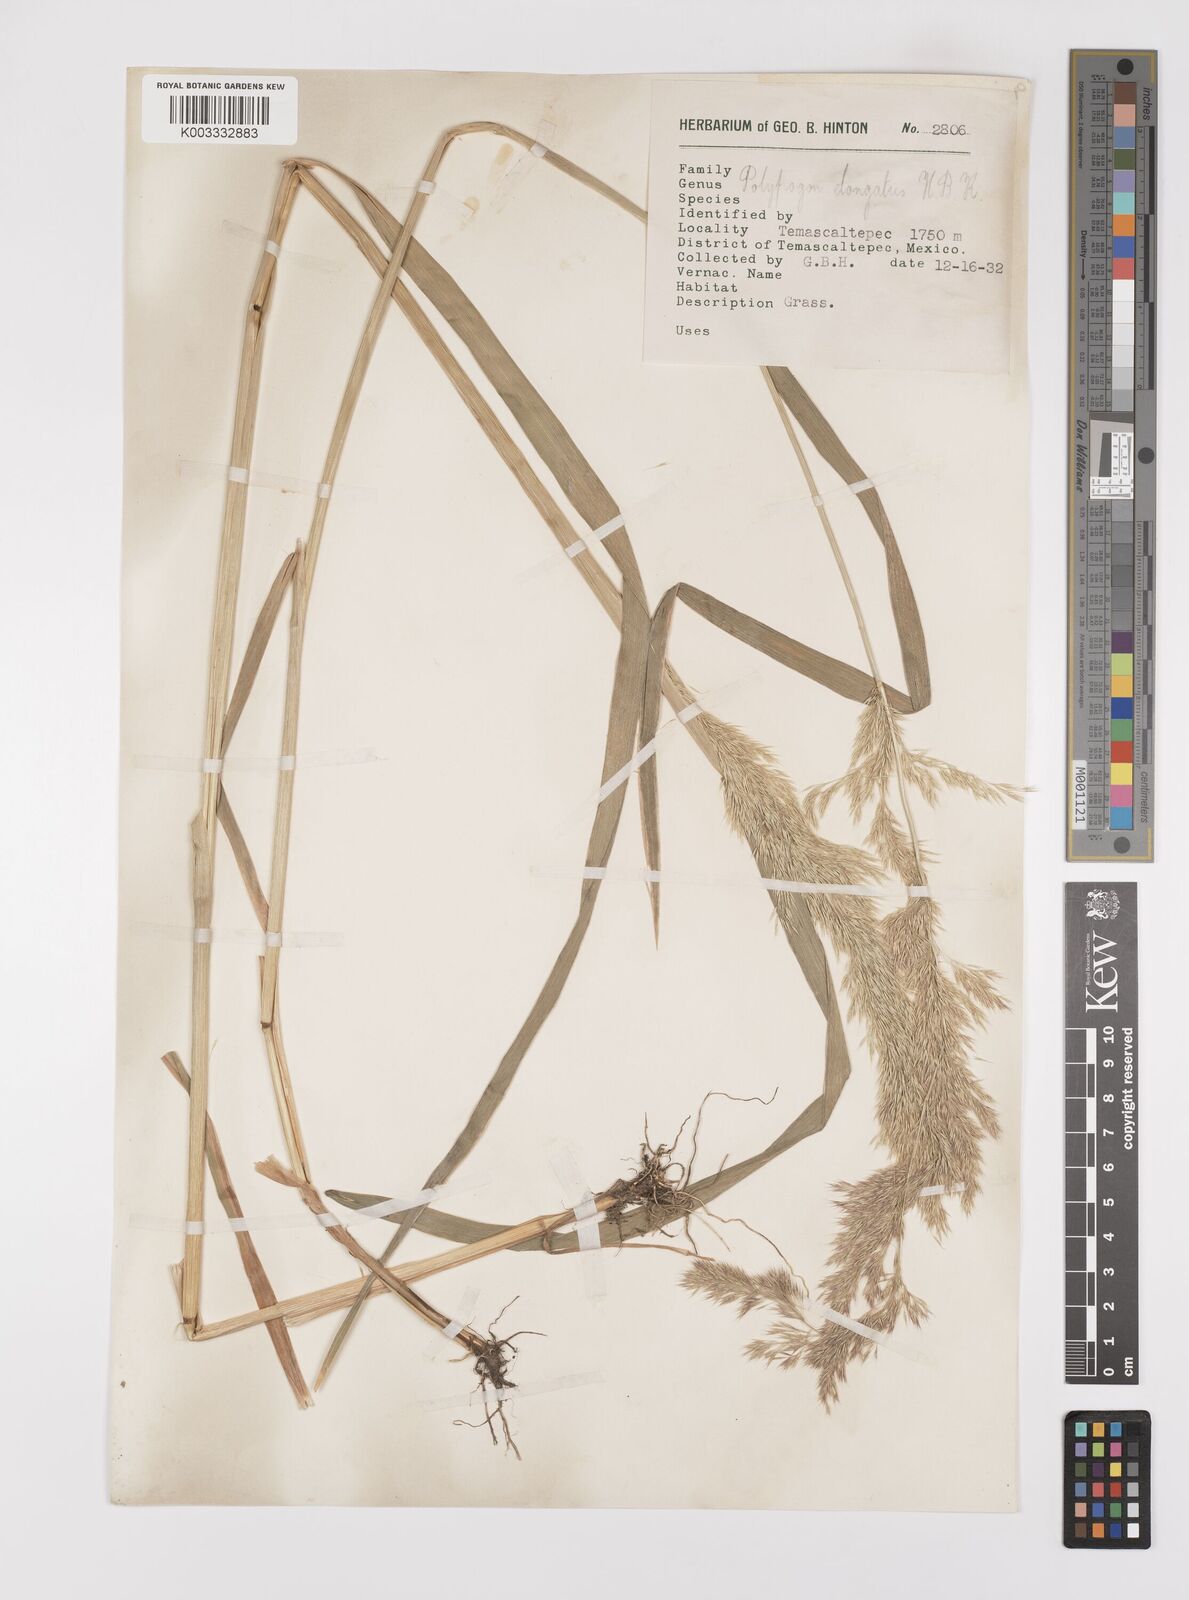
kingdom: Plantae
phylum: Tracheophyta
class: Liliopsida
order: Poales
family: Poaceae
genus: Polypogon
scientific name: Polypogon elongatus
